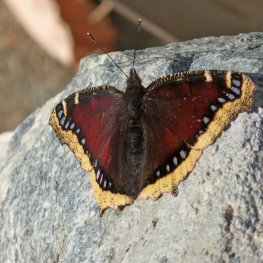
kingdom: Animalia
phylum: Arthropoda
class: Insecta
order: Lepidoptera
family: Nymphalidae
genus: Nymphalis
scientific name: Nymphalis antiopa
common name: Mourning Cloak
